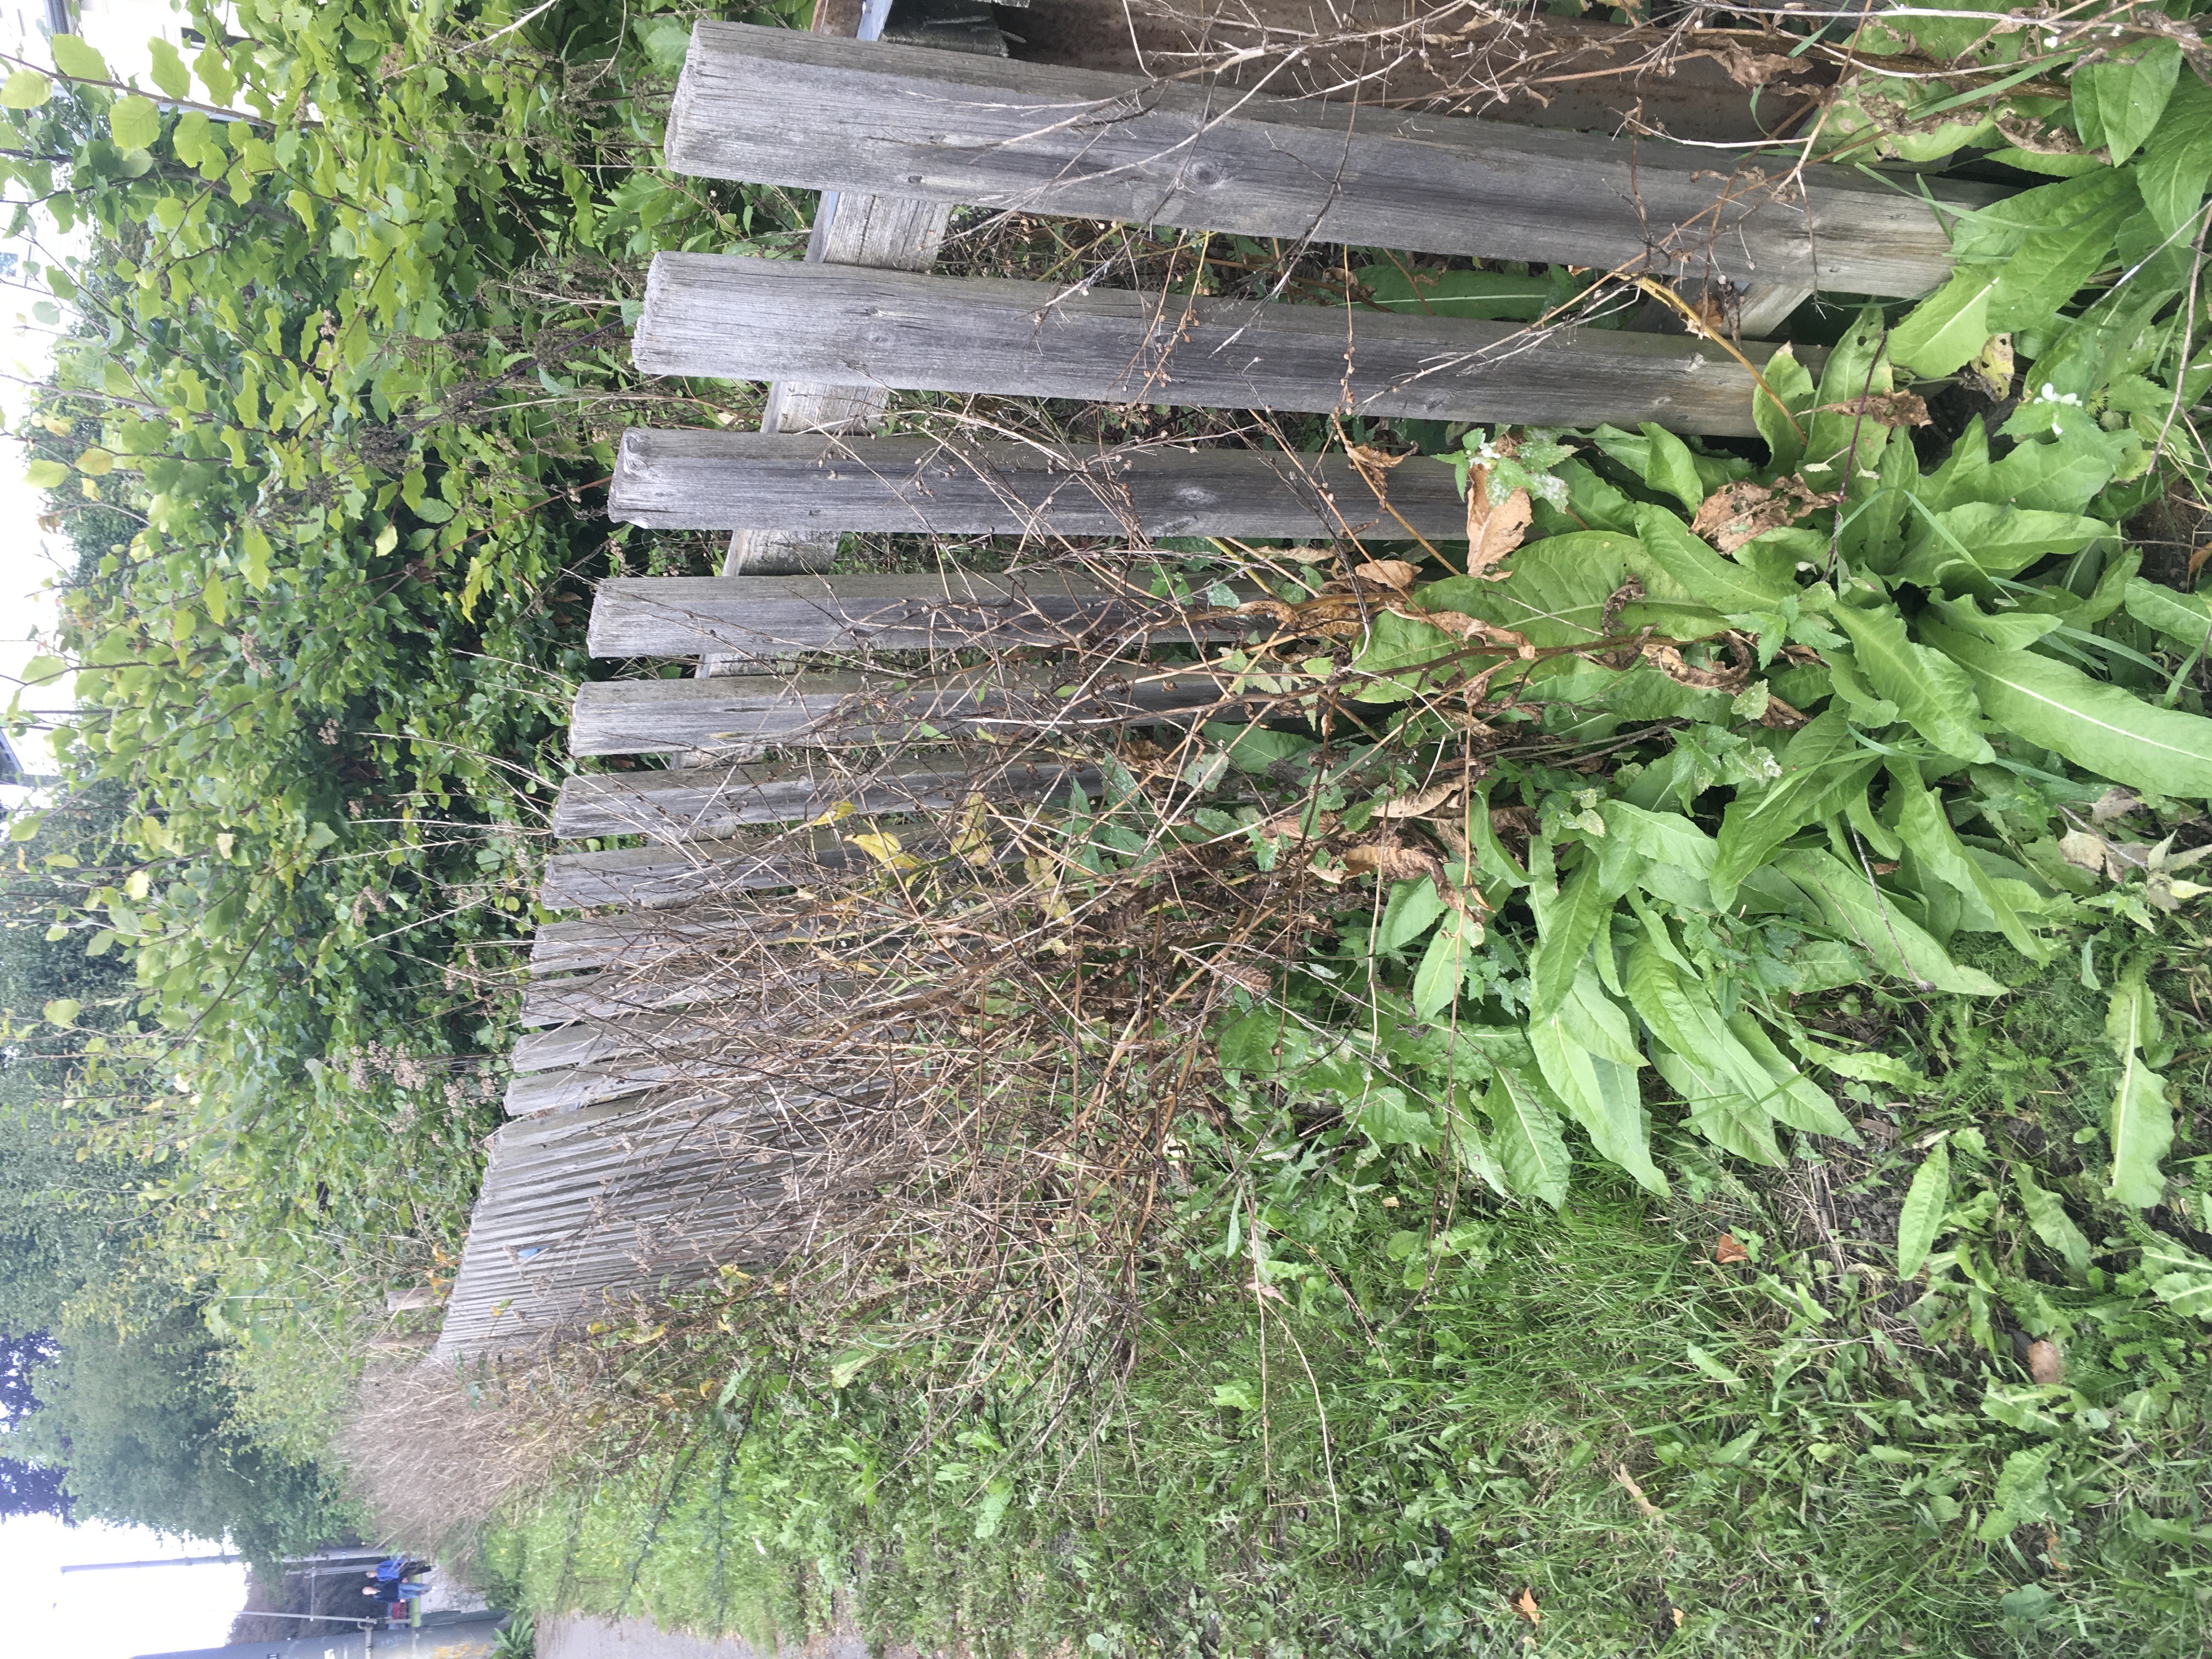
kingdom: Plantae
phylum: Tracheophyta
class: Magnoliopsida
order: Brassicales
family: Brassicaceae
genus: Bunias
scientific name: Bunias orientalis
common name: russekål
